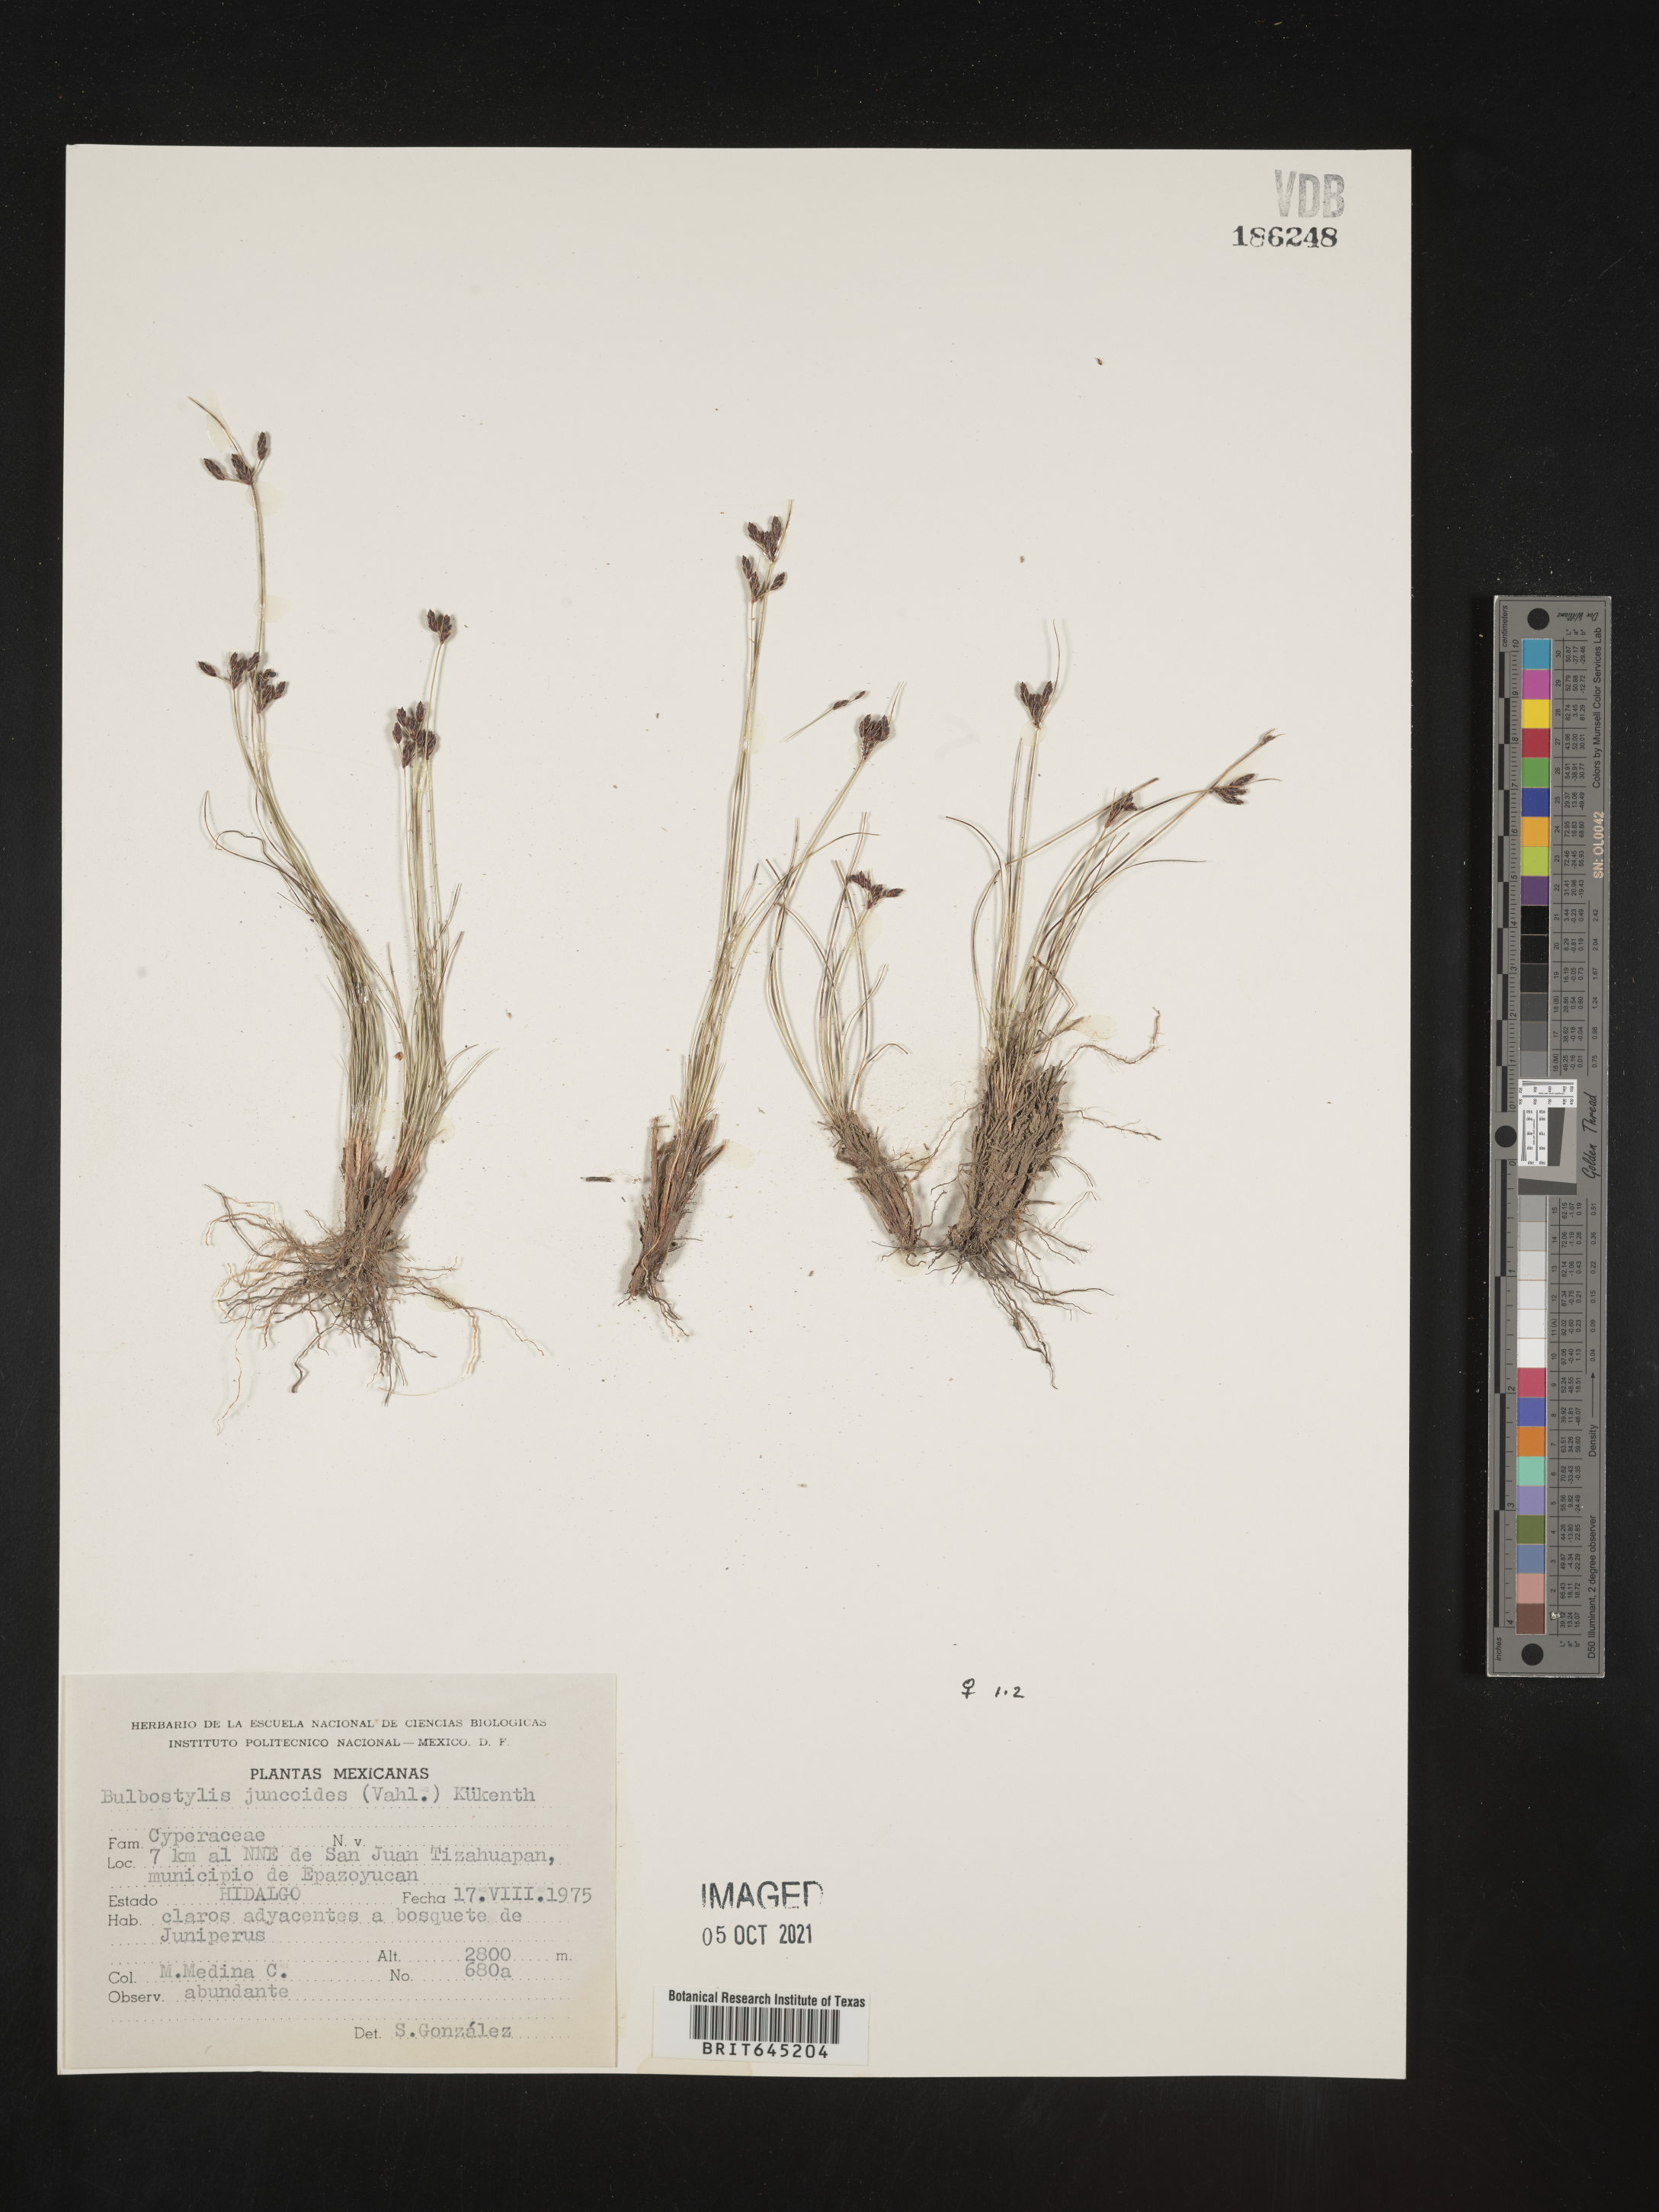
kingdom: Plantae
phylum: Tracheophyta
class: Liliopsida
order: Poales
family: Cyperaceae
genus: Bulbostylis
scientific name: Bulbostylis juncoides
